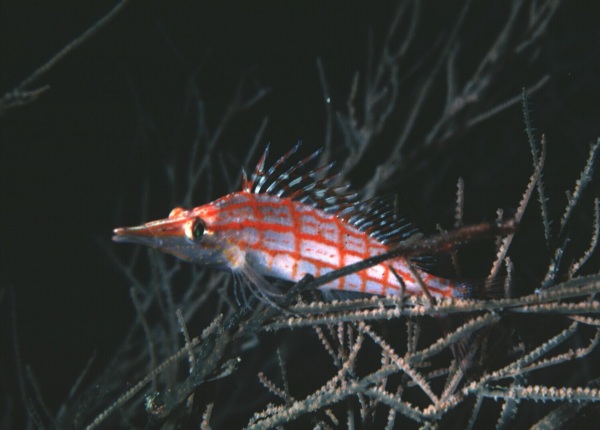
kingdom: Animalia
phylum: Chordata
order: Perciformes
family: Cirrhitidae
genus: Oxycirrhites
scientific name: Oxycirrhites typus
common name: Longnose hawkfish
